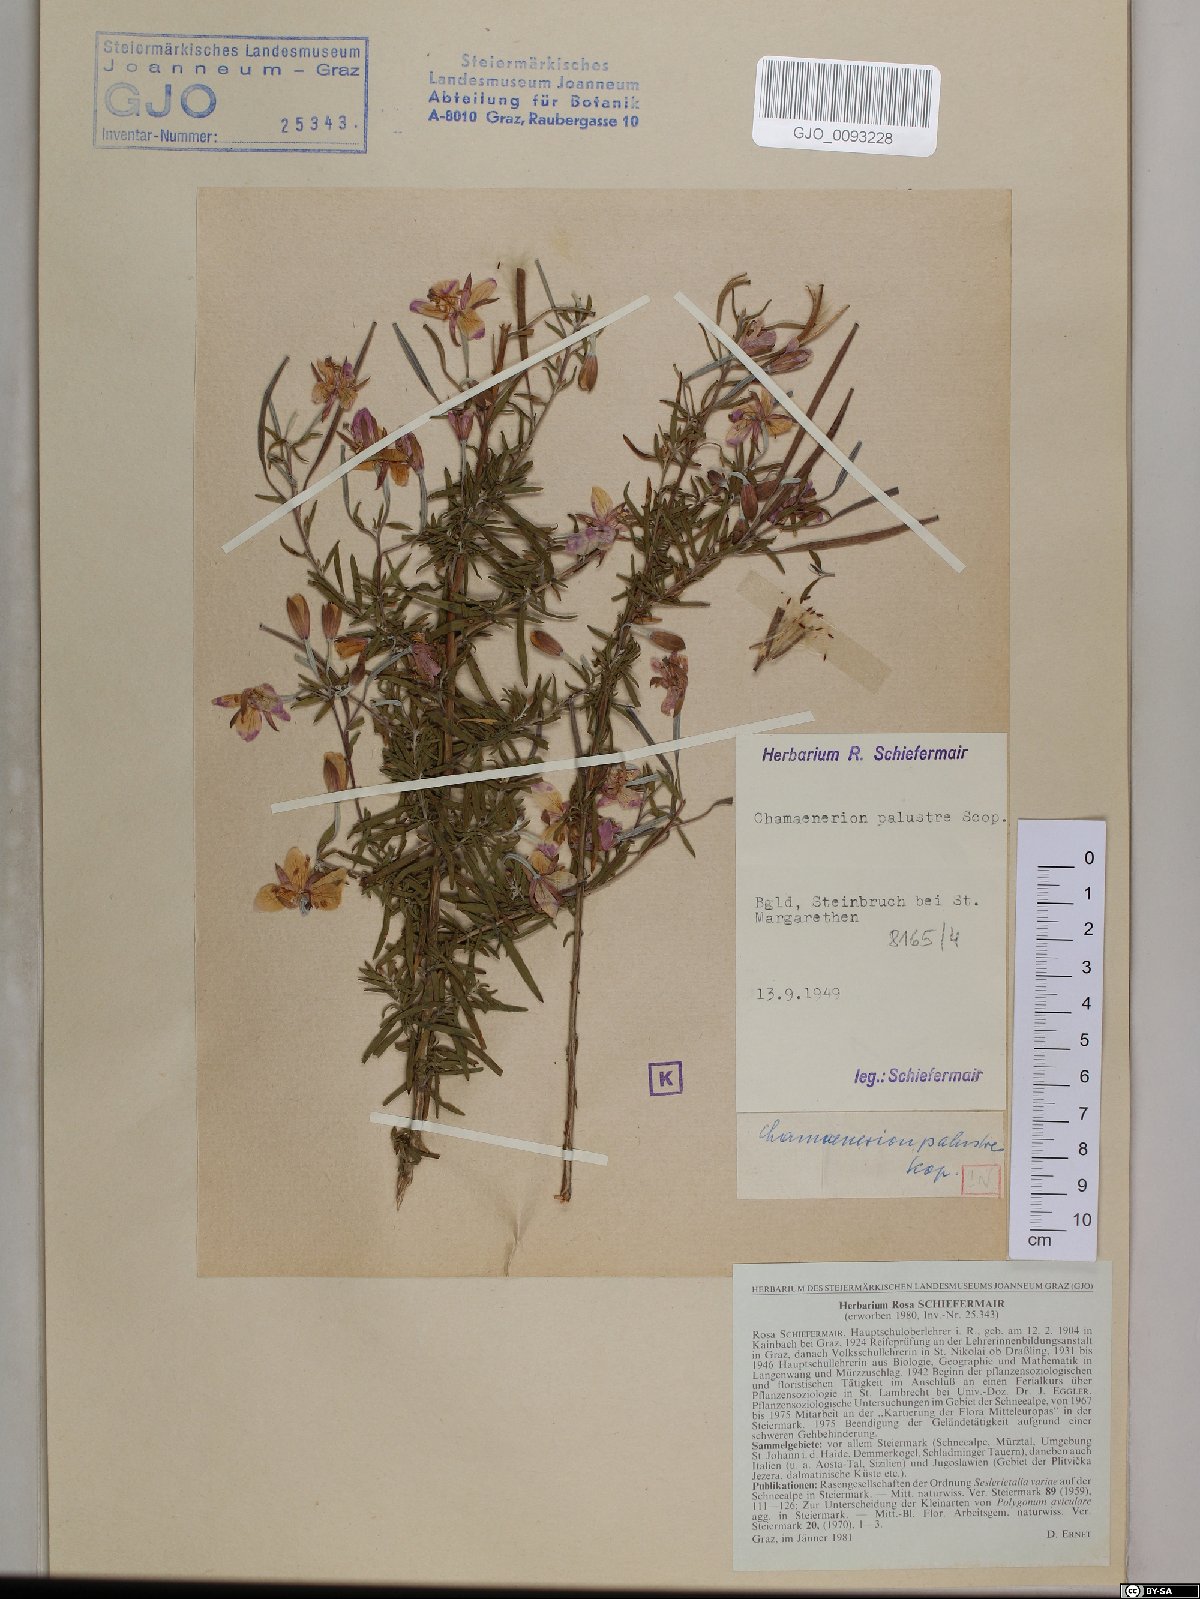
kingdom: Plantae
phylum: Tracheophyta
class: Magnoliopsida
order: Myrtales
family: Onagraceae
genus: Chamaenerion
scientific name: Chamaenerion dodonaei
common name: Rosemary-leaved willowherb
